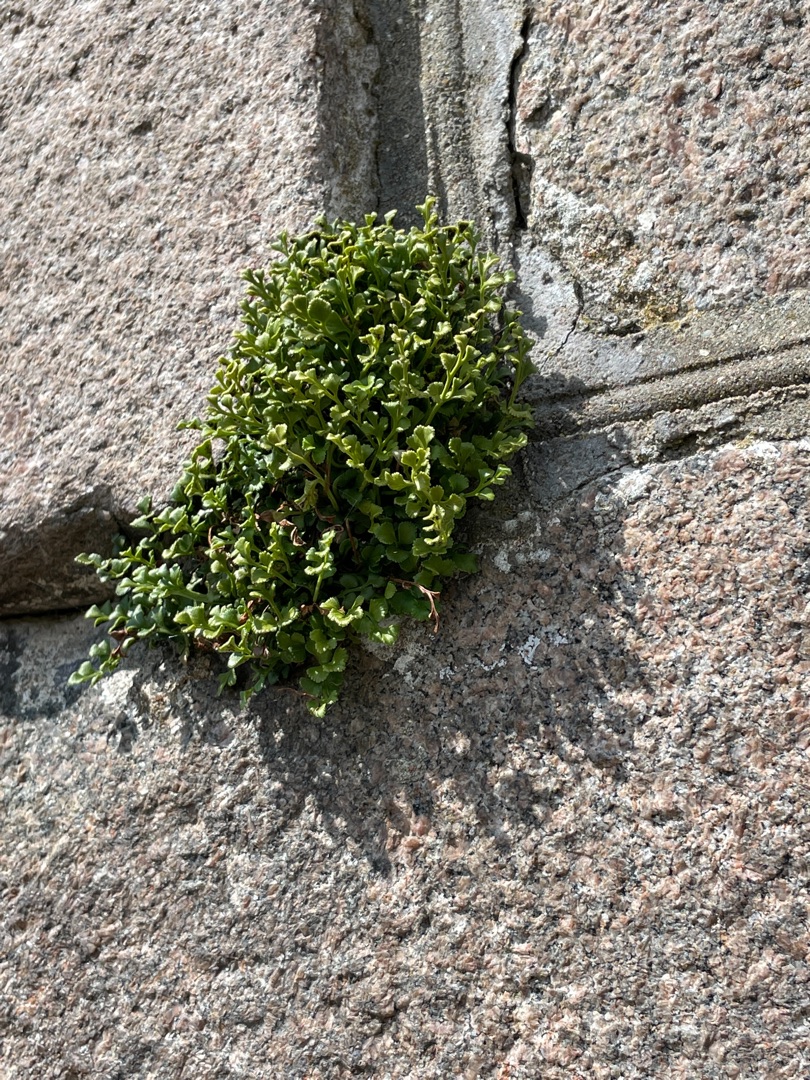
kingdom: Plantae
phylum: Tracheophyta
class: Polypodiopsida
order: Polypodiales
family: Aspleniaceae
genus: Asplenium
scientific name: Asplenium ruta-muraria
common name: Murrude
